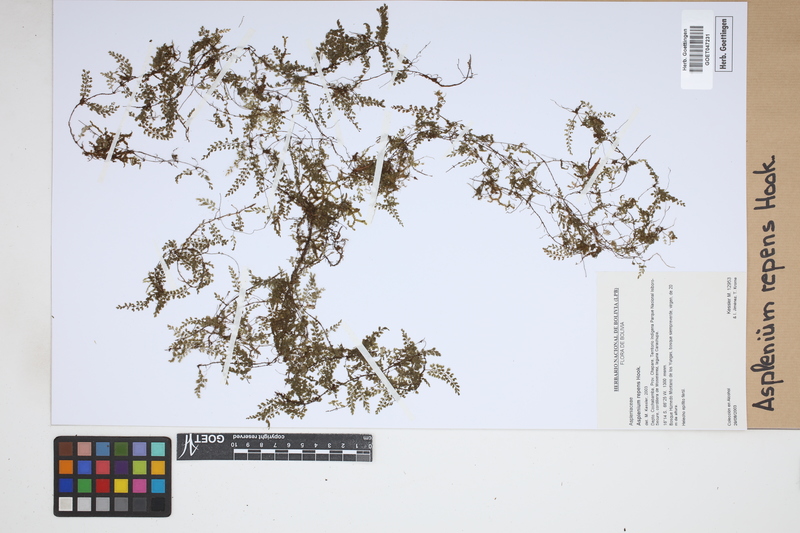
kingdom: Plantae
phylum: Tracheophyta
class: Polypodiopsida
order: Polypodiales
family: Aspleniaceae
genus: Asplenium
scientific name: Asplenium repens
